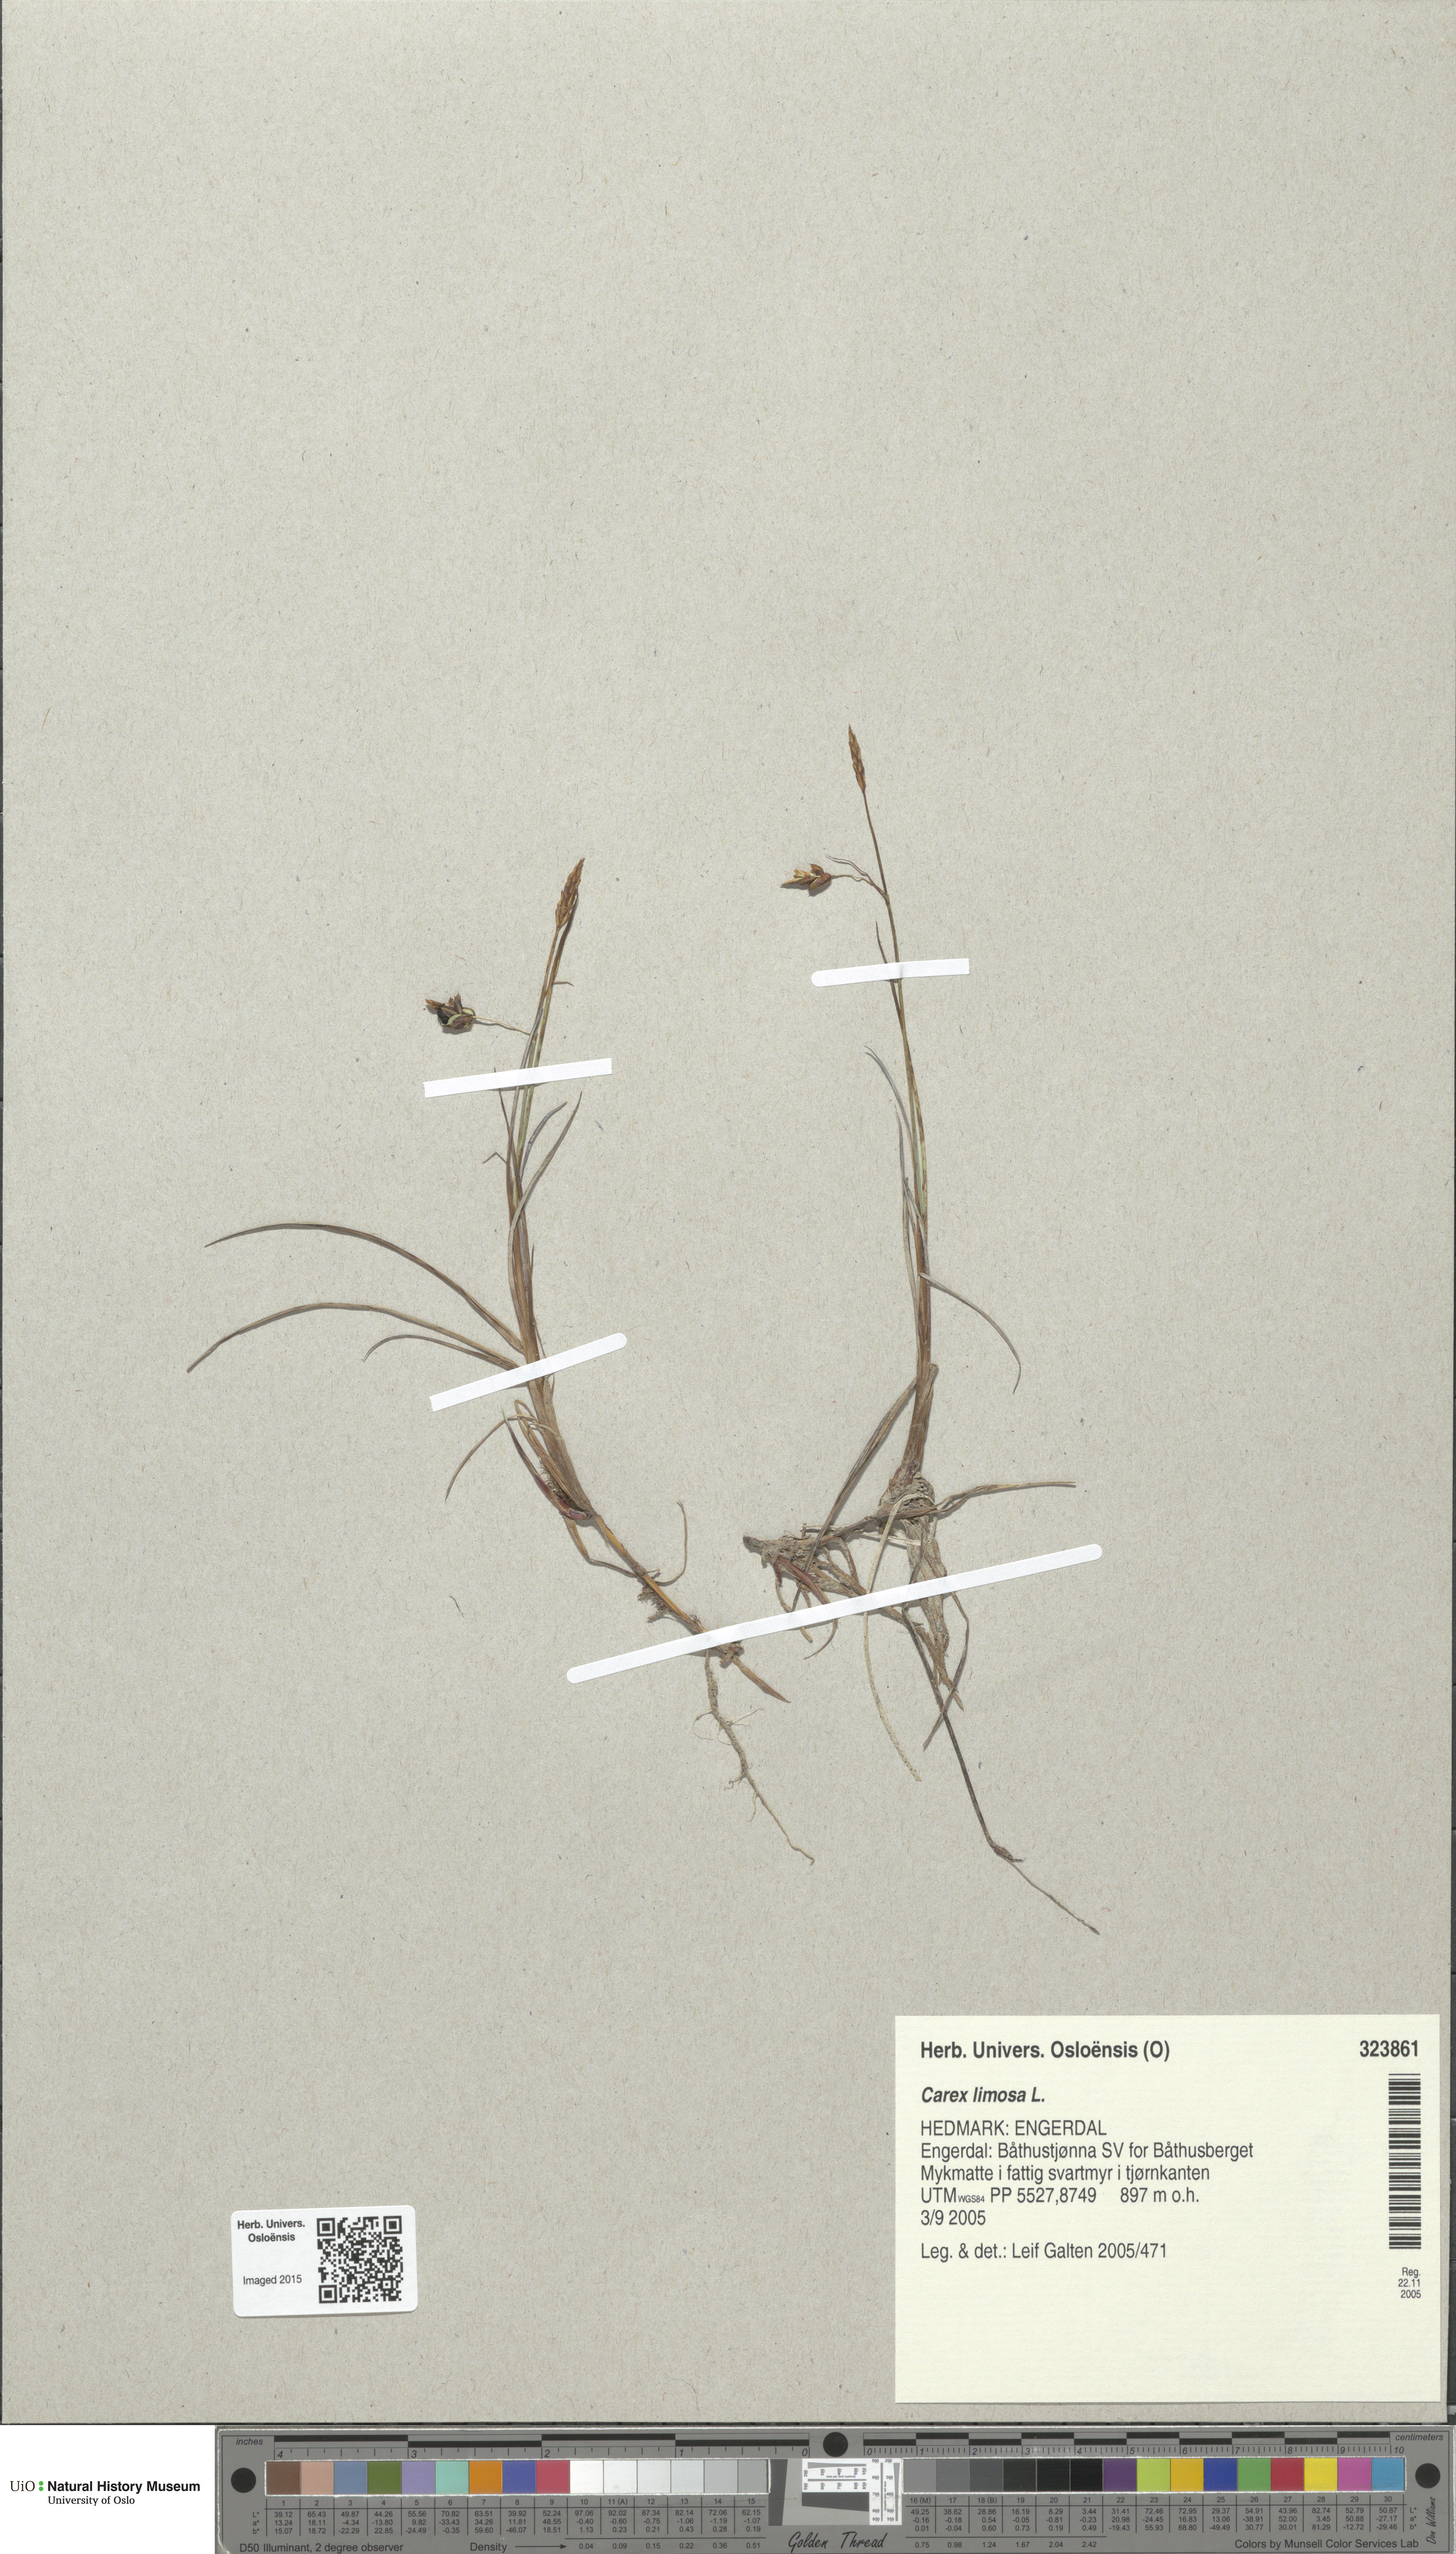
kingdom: Plantae
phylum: Tracheophyta
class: Liliopsida
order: Poales
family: Cyperaceae
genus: Carex
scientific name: Carex limosa
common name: Bog sedge
